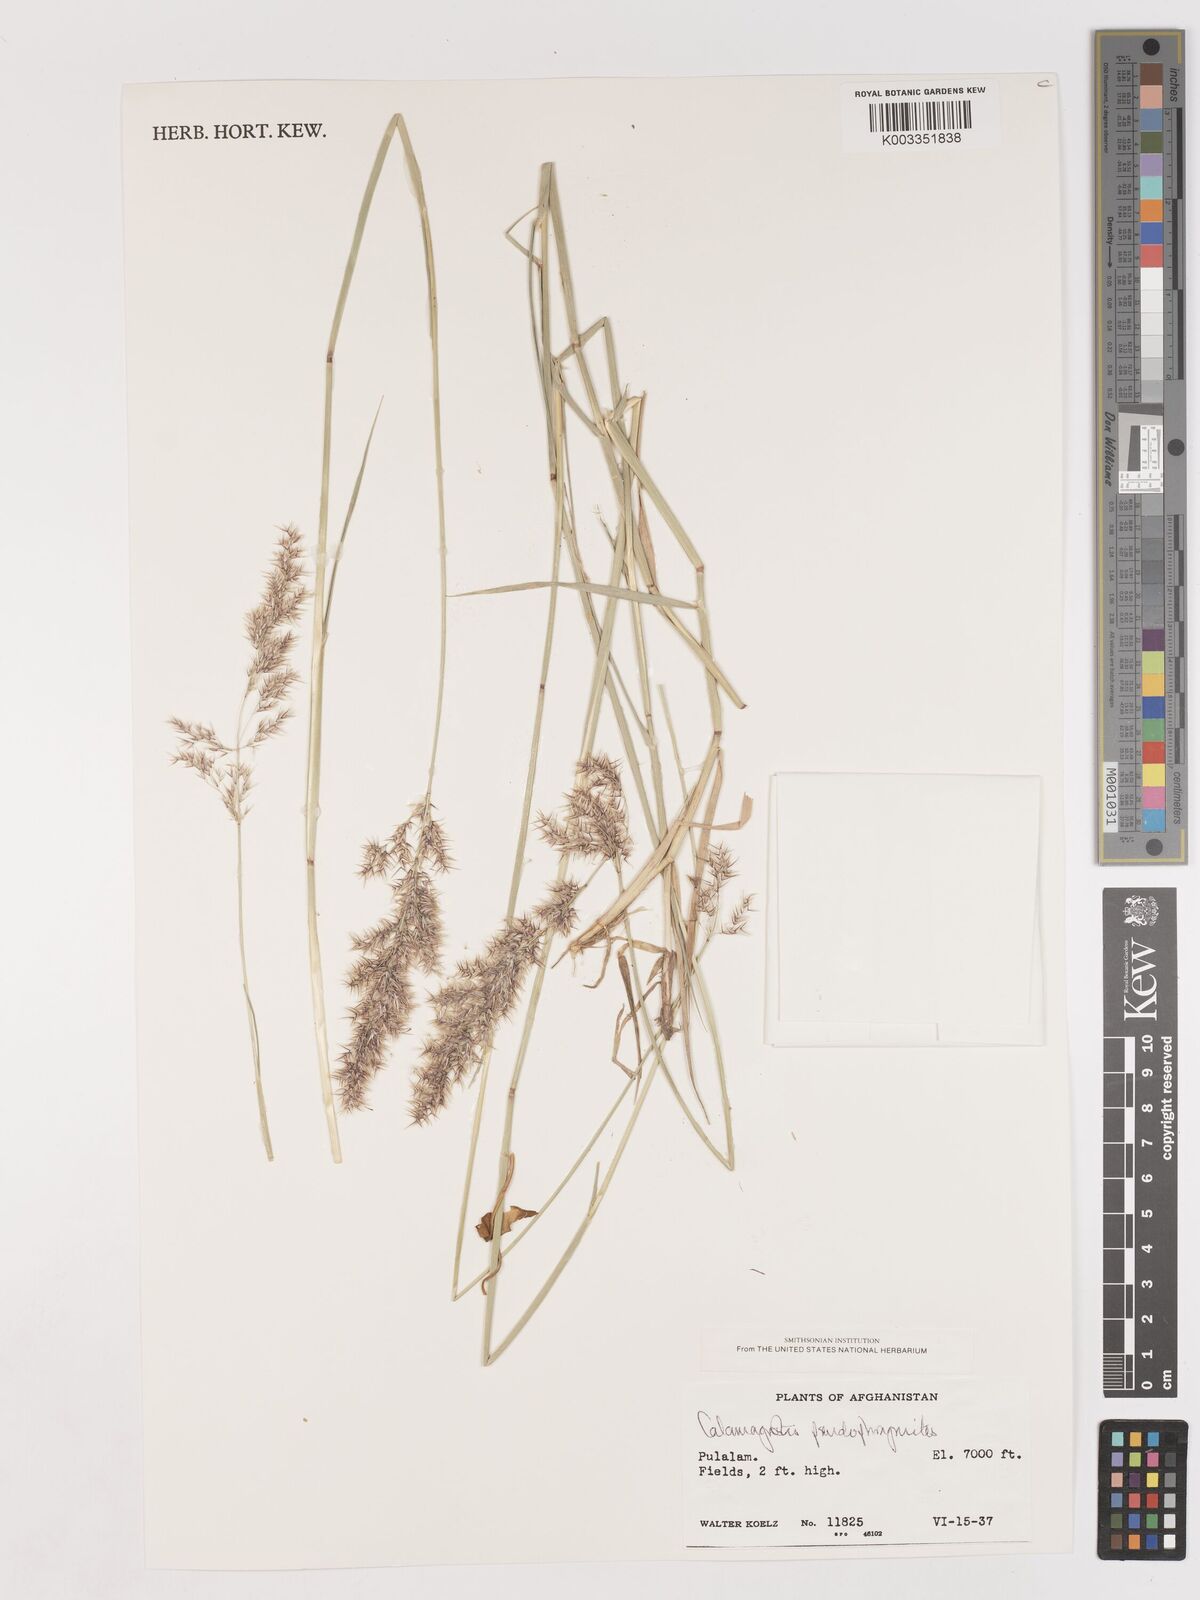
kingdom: Plantae
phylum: Tracheophyta
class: Liliopsida
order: Poales
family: Poaceae
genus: Calamagrostis
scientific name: Calamagrostis purpurea
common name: Scandinavian small-reed
